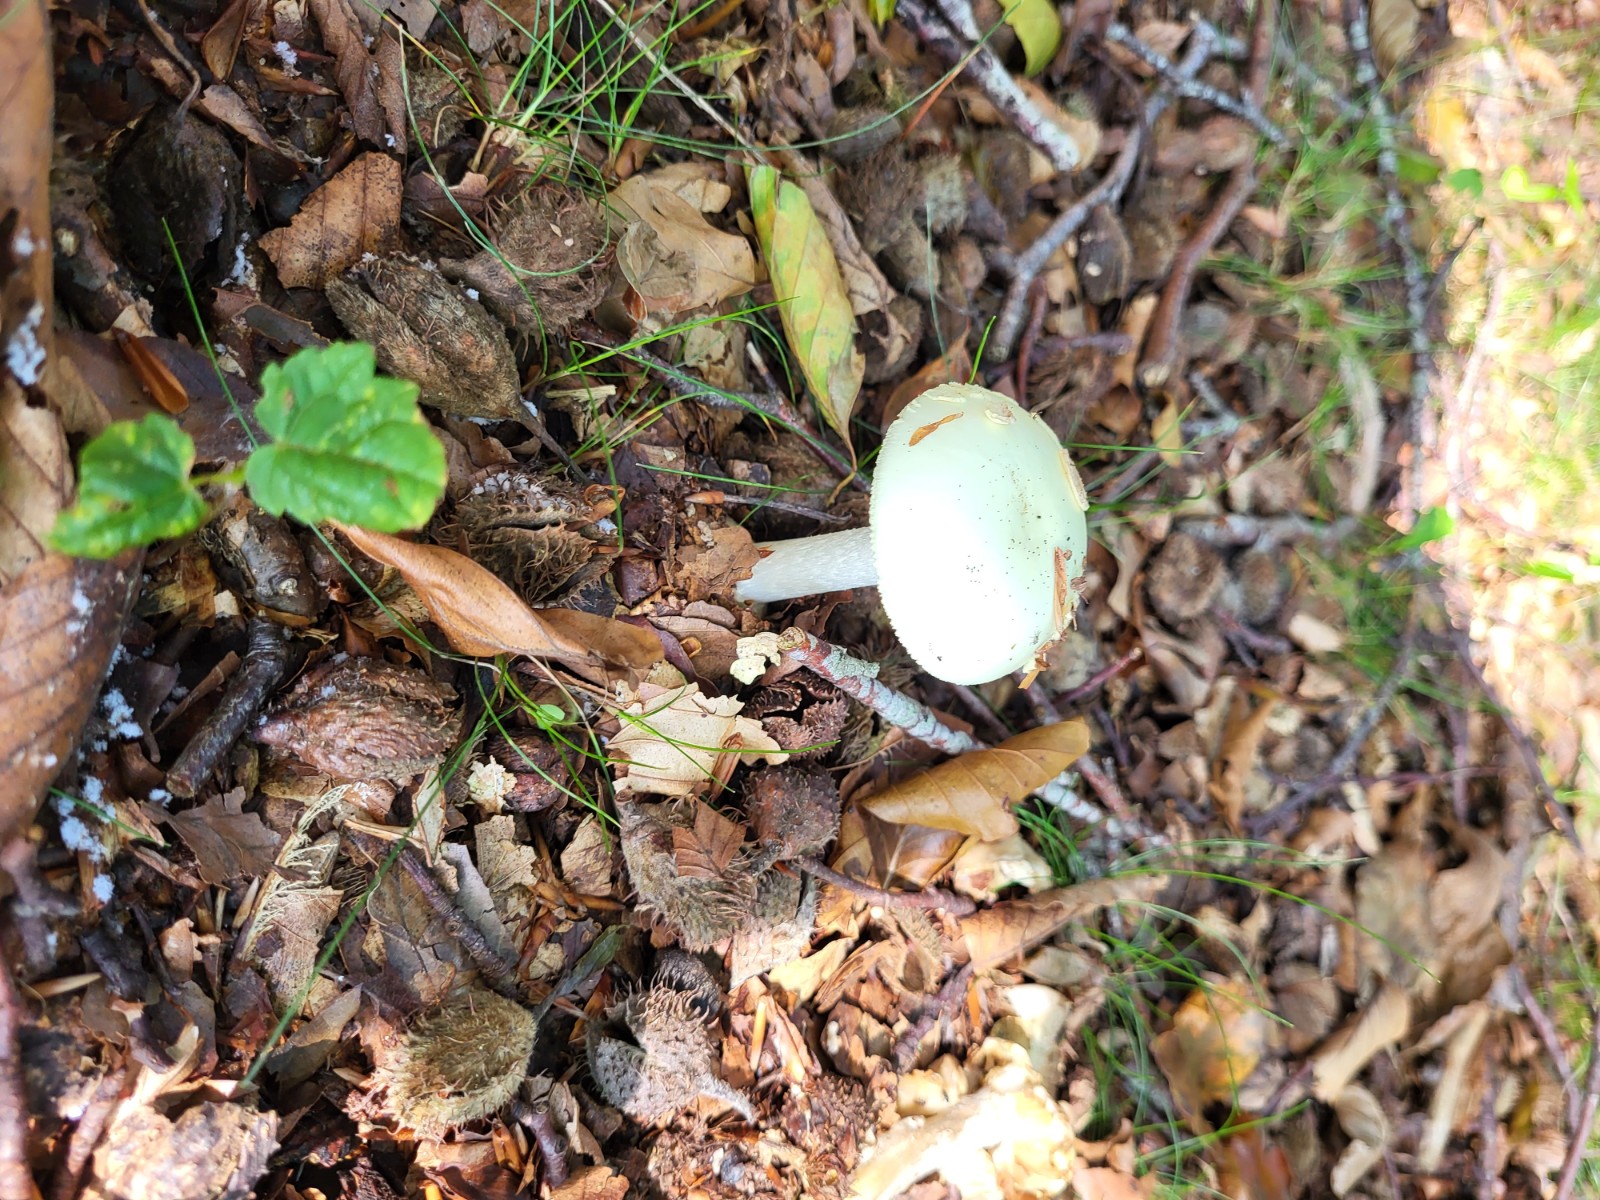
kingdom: Fungi
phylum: Basidiomycota
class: Agaricomycetes
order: Agaricales
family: Amanitaceae
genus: Amanita
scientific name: Amanita citrina
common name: kugleknoldet fluesvamp
